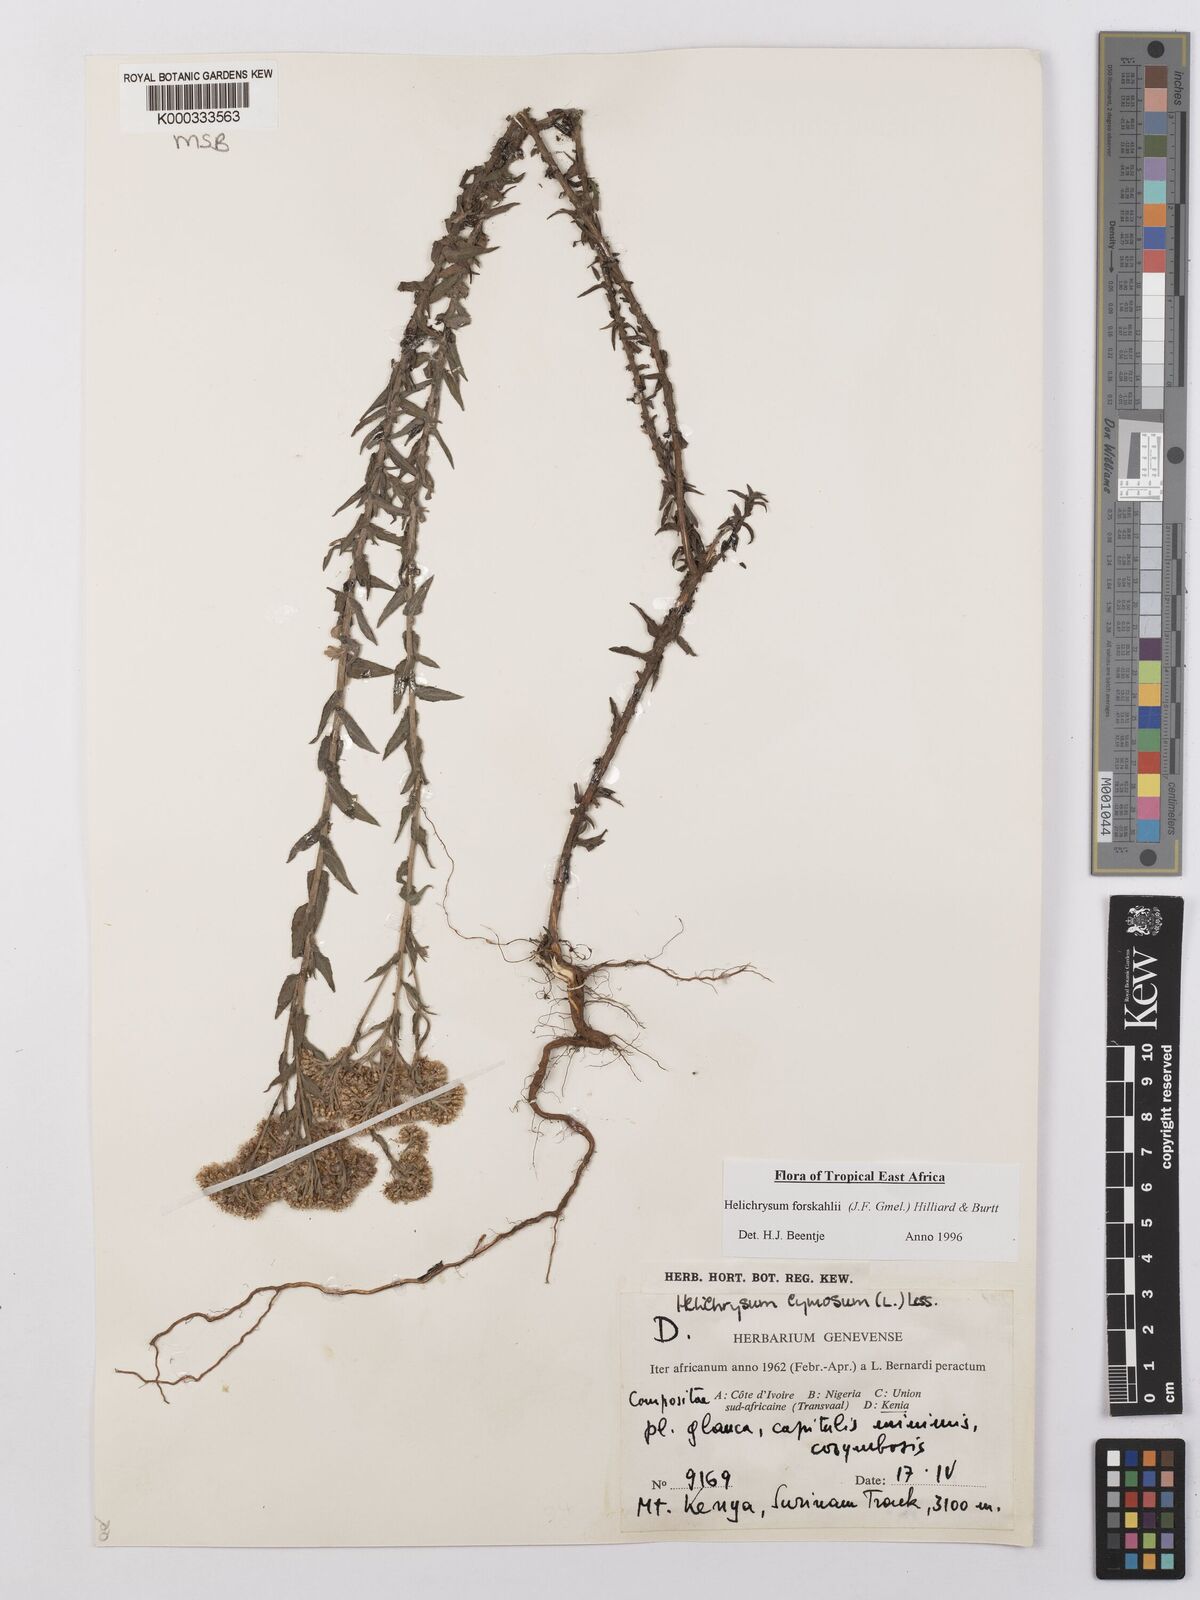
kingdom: Plantae
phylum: Tracheophyta
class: Magnoliopsida
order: Asterales
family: Asteraceae
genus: Helichrysum
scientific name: Helichrysum
